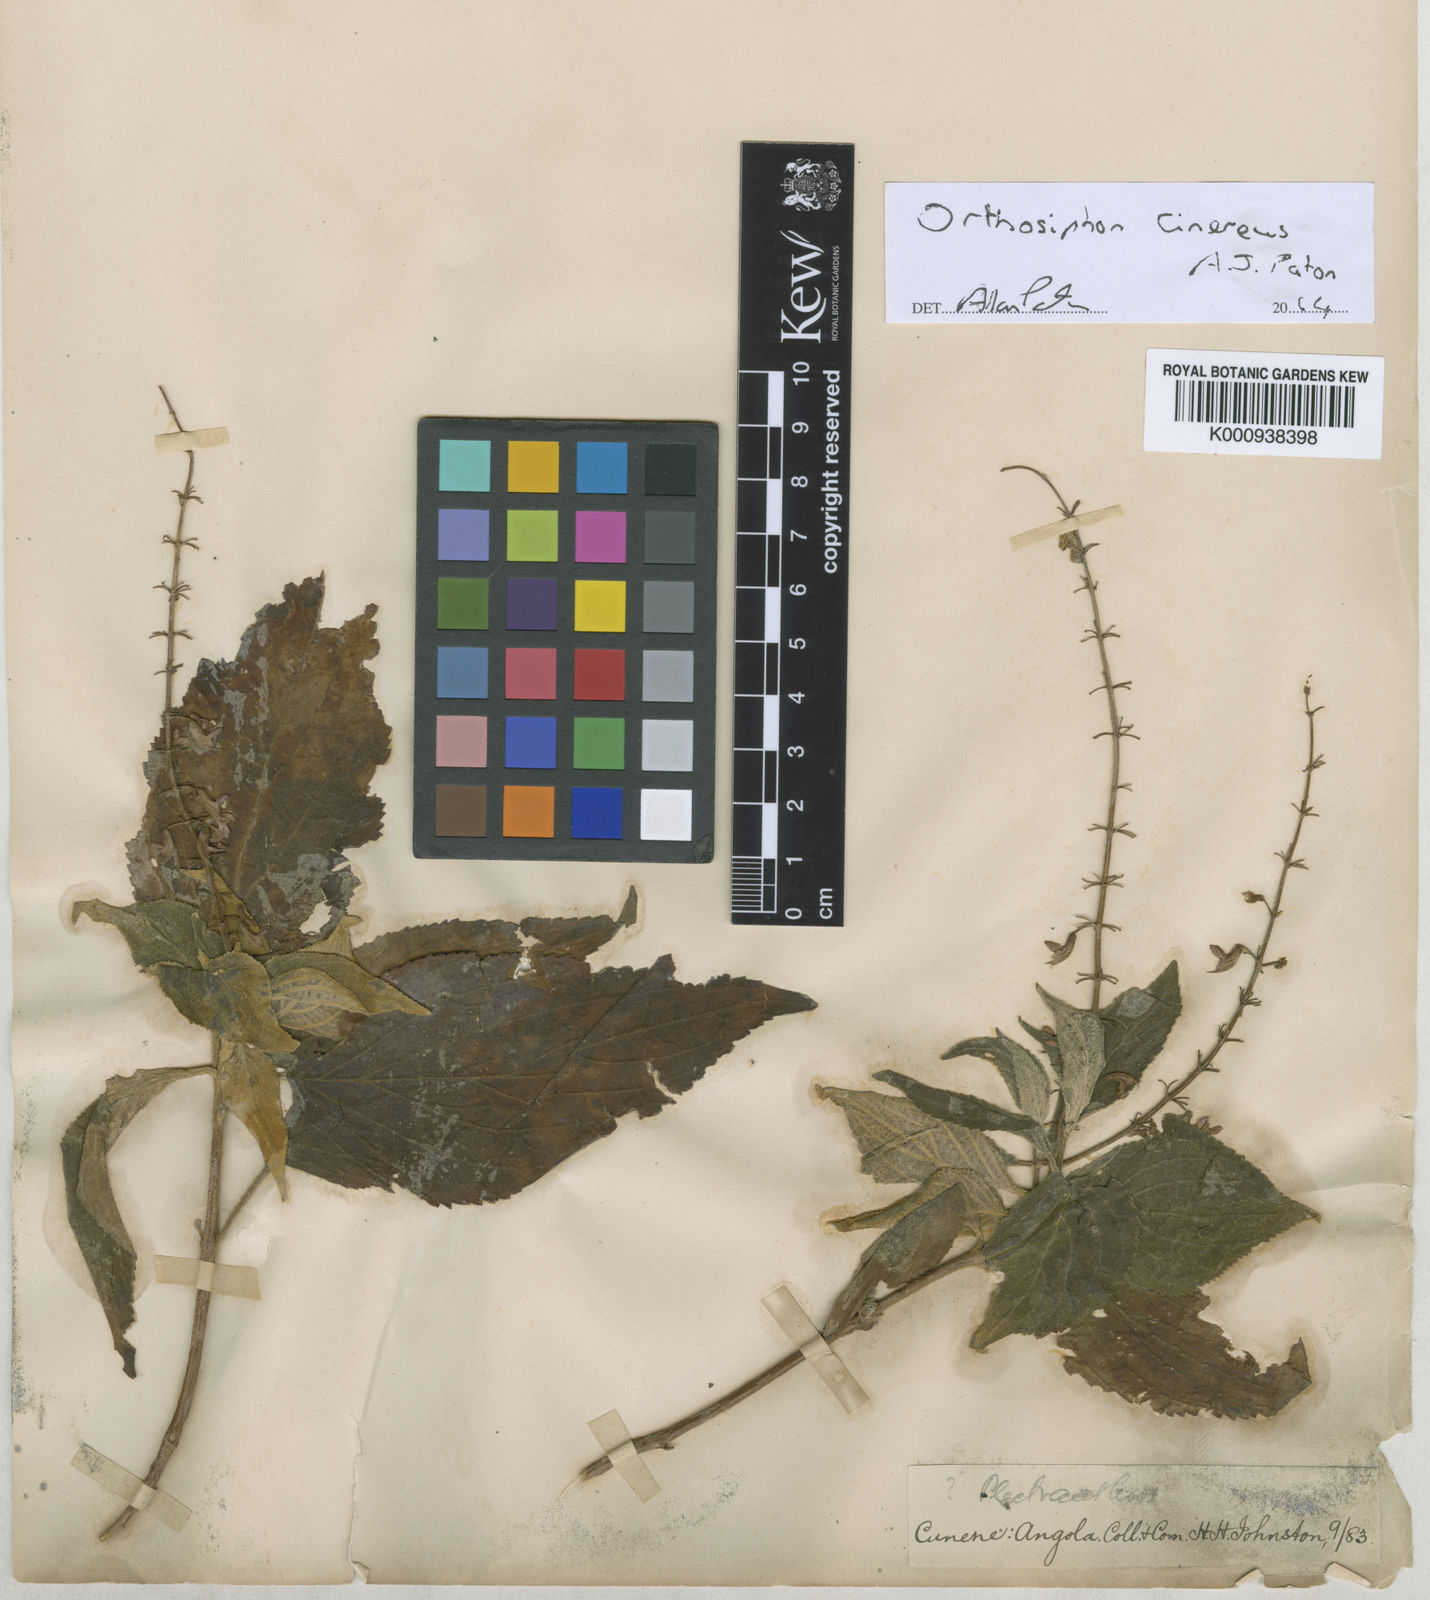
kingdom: Plantae
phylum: Tracheophyta
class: Magnoliopsida
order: Lamiales
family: Lamiaceae
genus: Orthosiphon
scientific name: Orthosiphon cinereus
